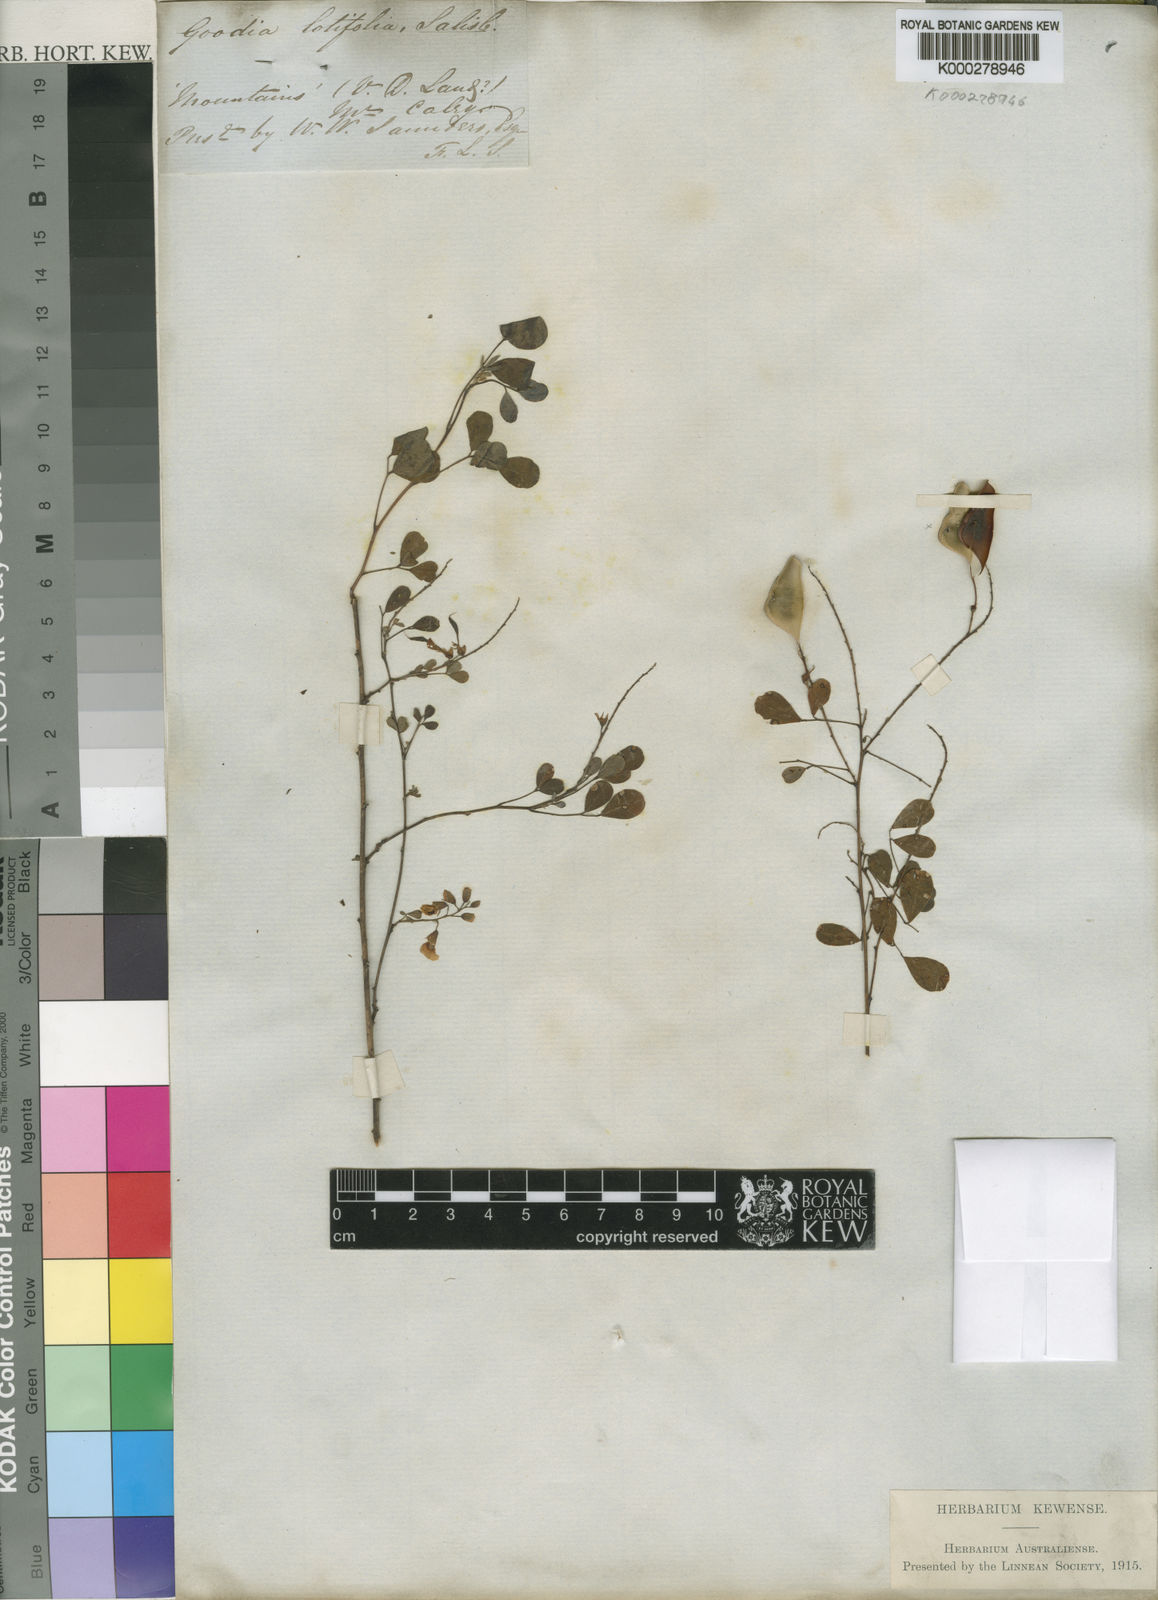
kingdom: Plantae
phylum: Tracheophyta
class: Magnoliopsida
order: Fabales
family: Fabaceae
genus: Goodia
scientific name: Goodia lotifolia
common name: Cloverleaf-poison
